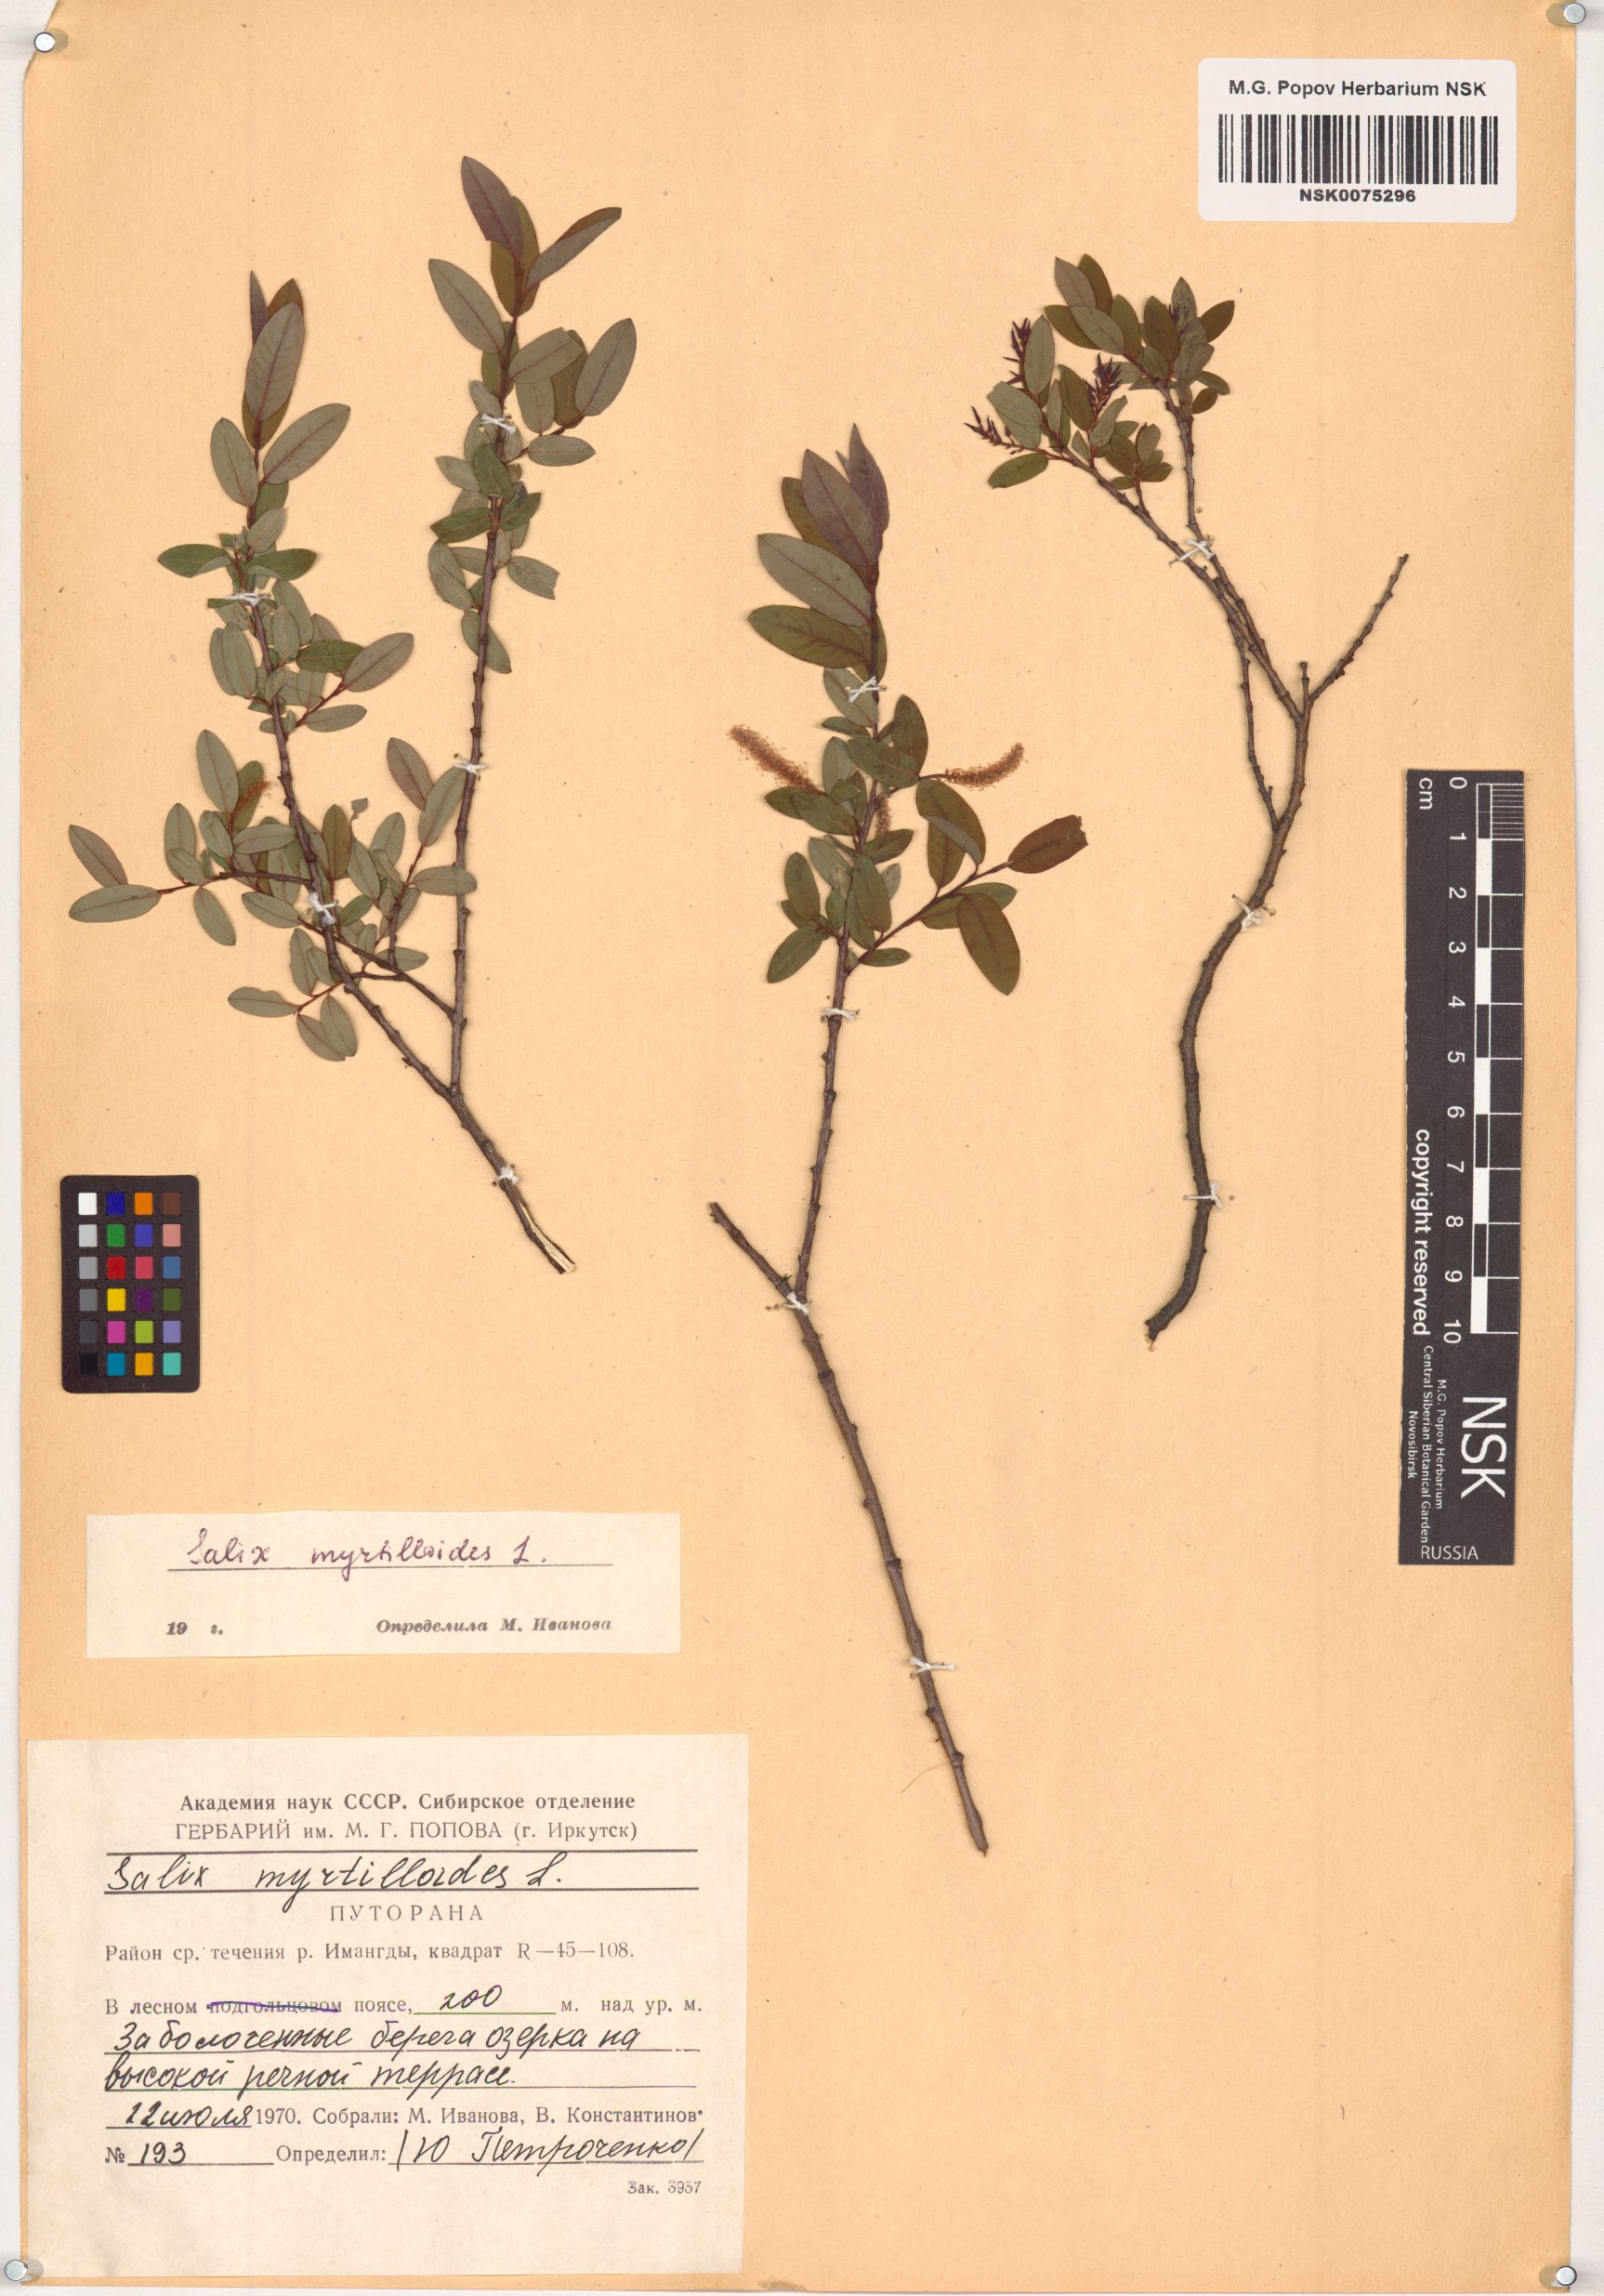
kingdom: Plantae
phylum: Tracheophyta
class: Magnoliopsida
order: Malpighiales
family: Salicaceae
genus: Salix
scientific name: Salix myrtilloides
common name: Myrtle-leaved willow
